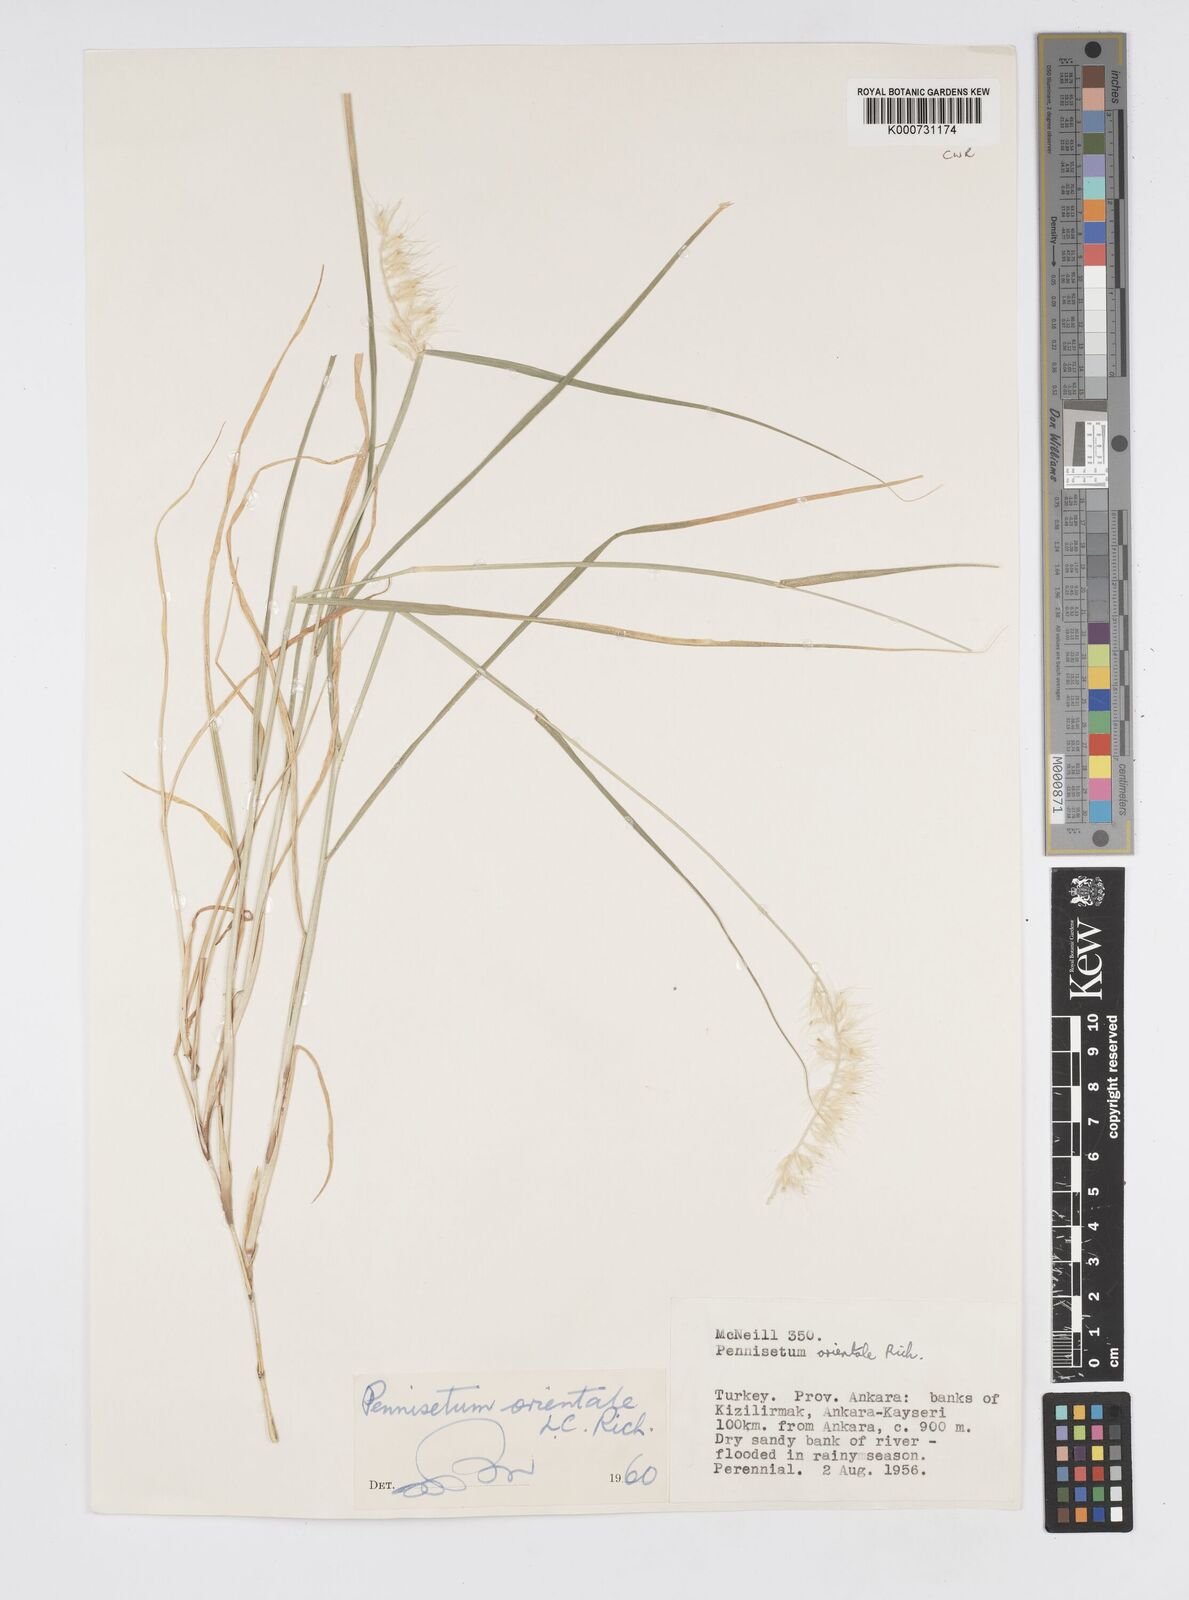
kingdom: Plantae
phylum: Tracheophyta
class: Liliopsida
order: Poales
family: Poaceae
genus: Cenchrus
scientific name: Cenchrus orientalis
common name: Oriental fountain grass
